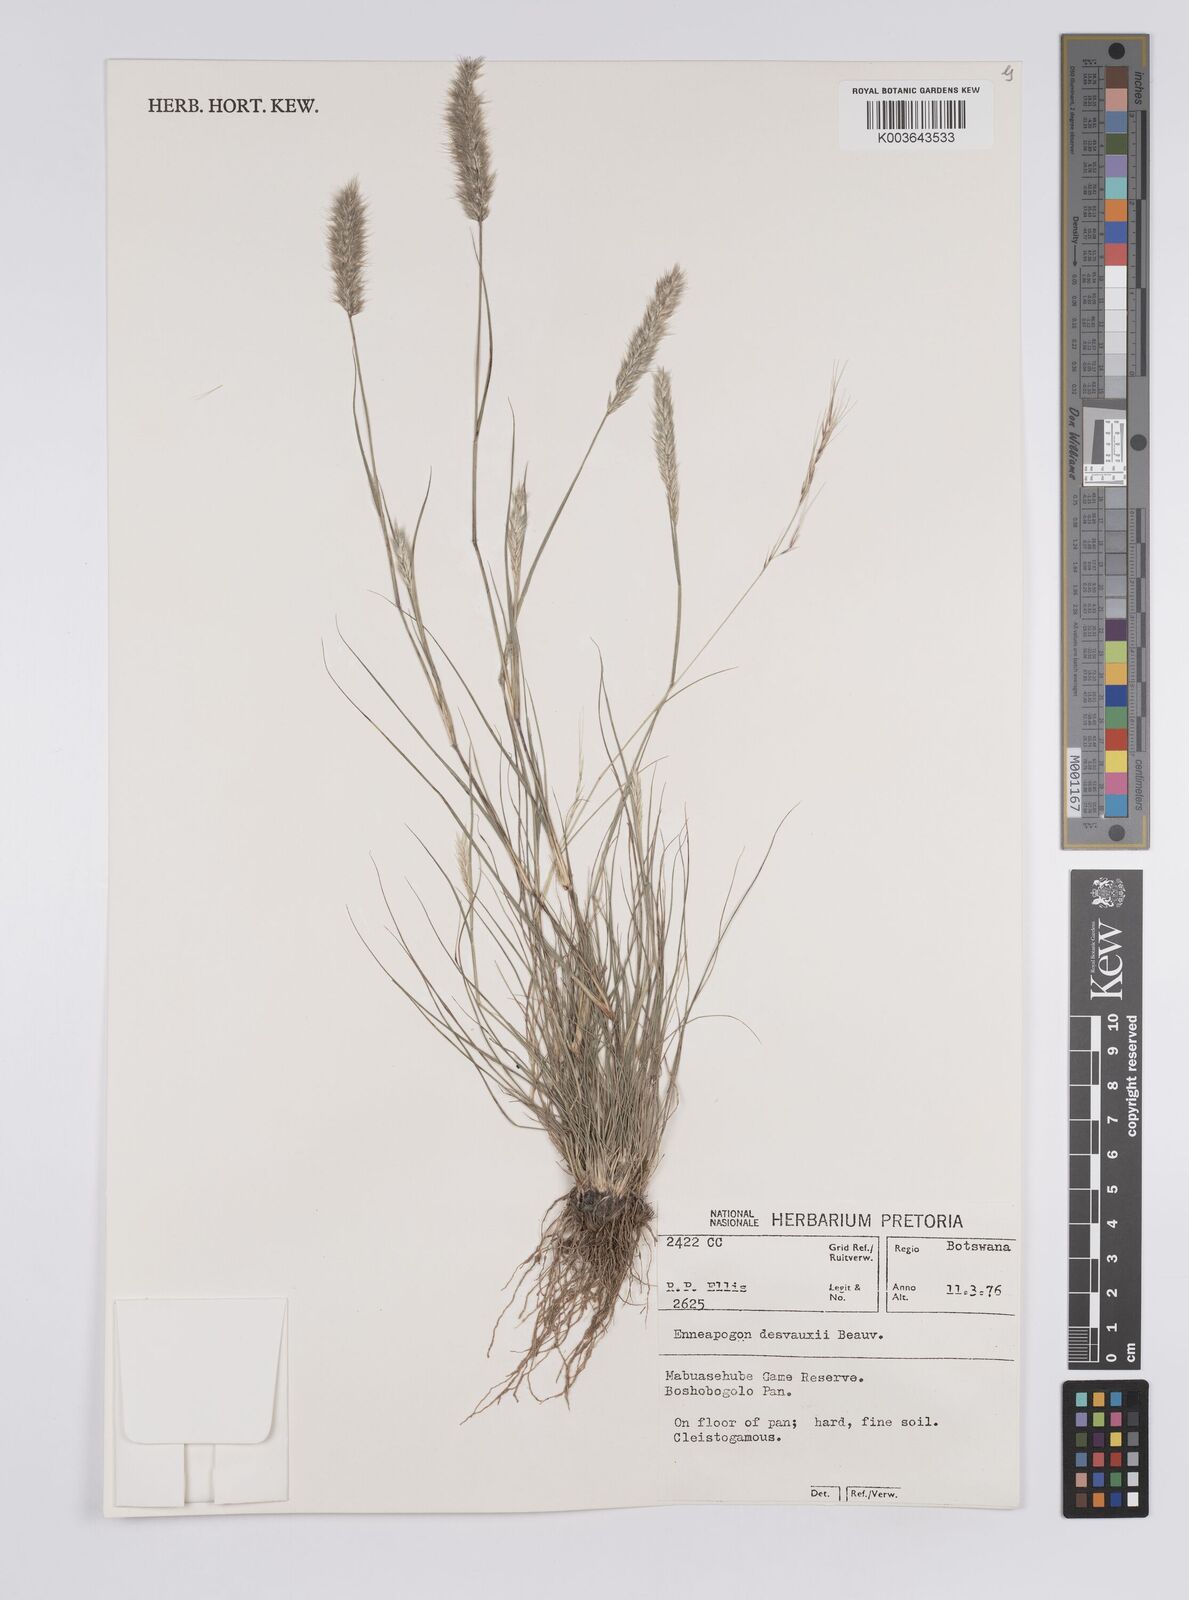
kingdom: Plantae
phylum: Tracheophyta
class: Liliopsida
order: Poales
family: Poaceae
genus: Enneapogon
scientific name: Enneapogon desvauxii
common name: Feather pappus grass
